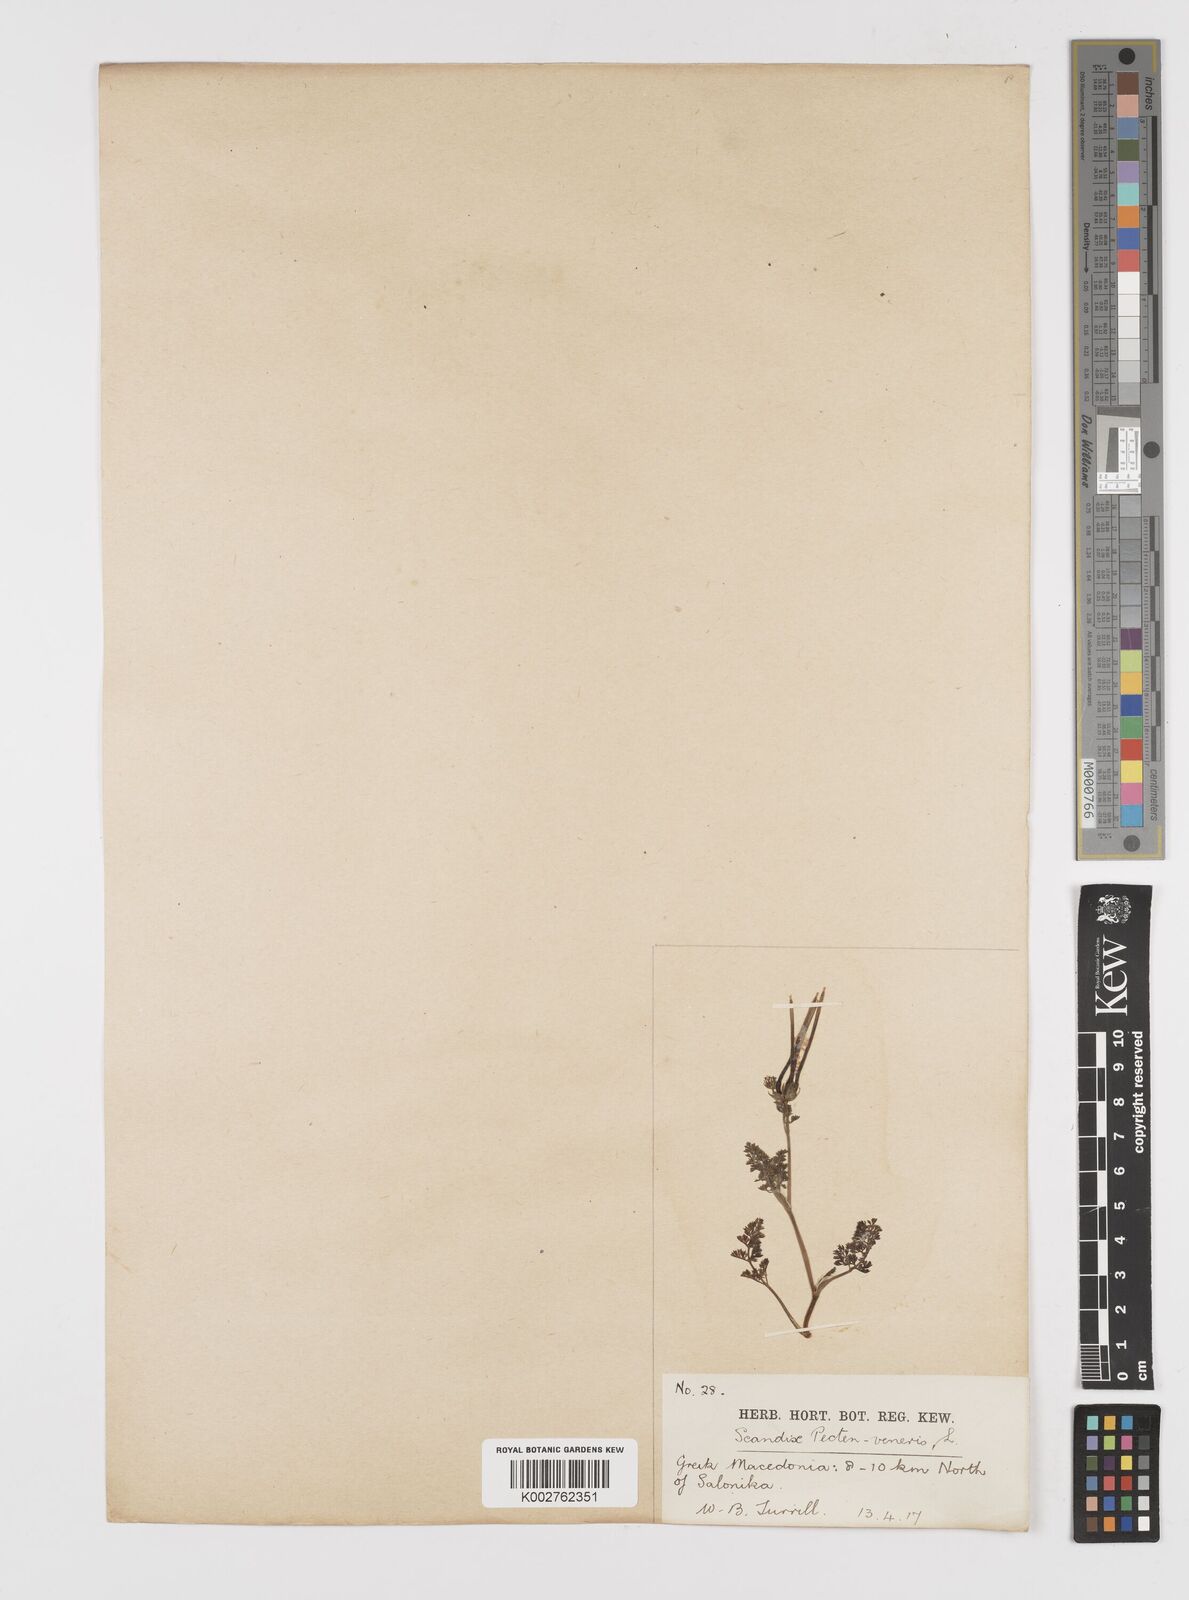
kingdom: Plantae
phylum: Tracheophyta
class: Magnoliopsida
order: Apiales
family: Apiaceae
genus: Scandix
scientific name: Scandix pecten-veneris
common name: Shepherd's-needle
